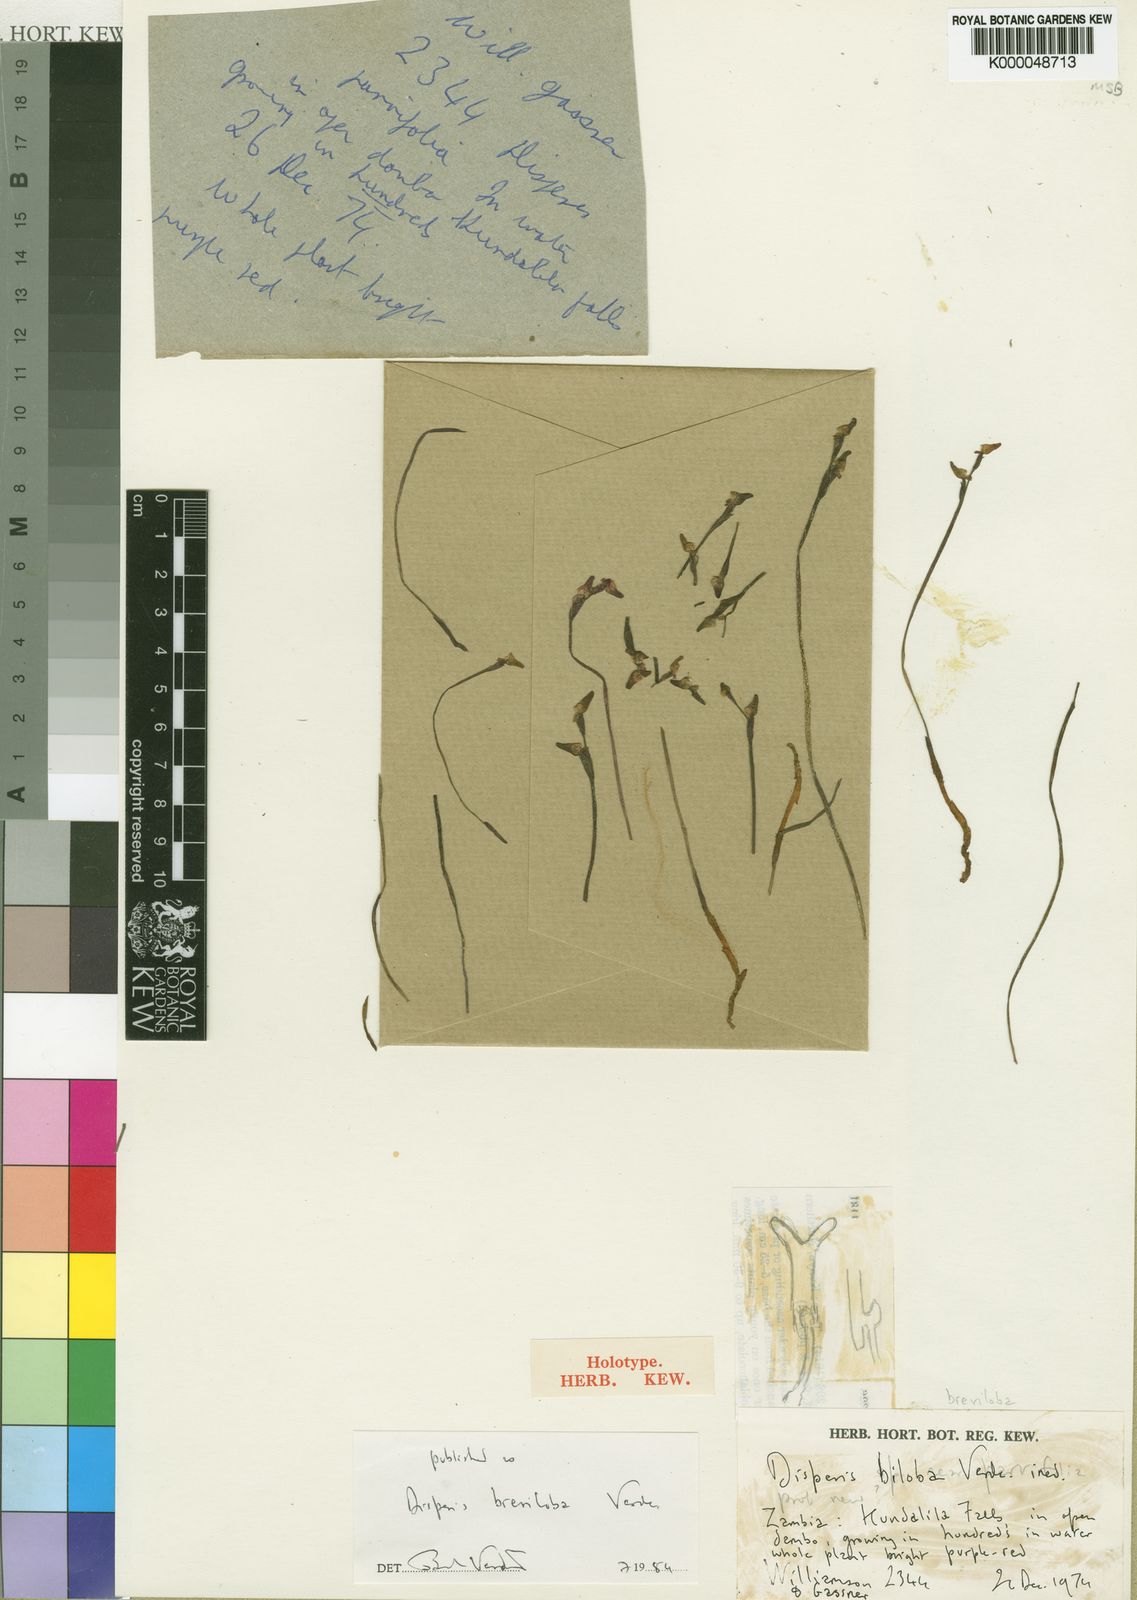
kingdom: Plantae
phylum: Tracheophyta
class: Liliopsida
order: Asparagales
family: Orchidaceae
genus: Disperis
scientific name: Disperis breviloba
